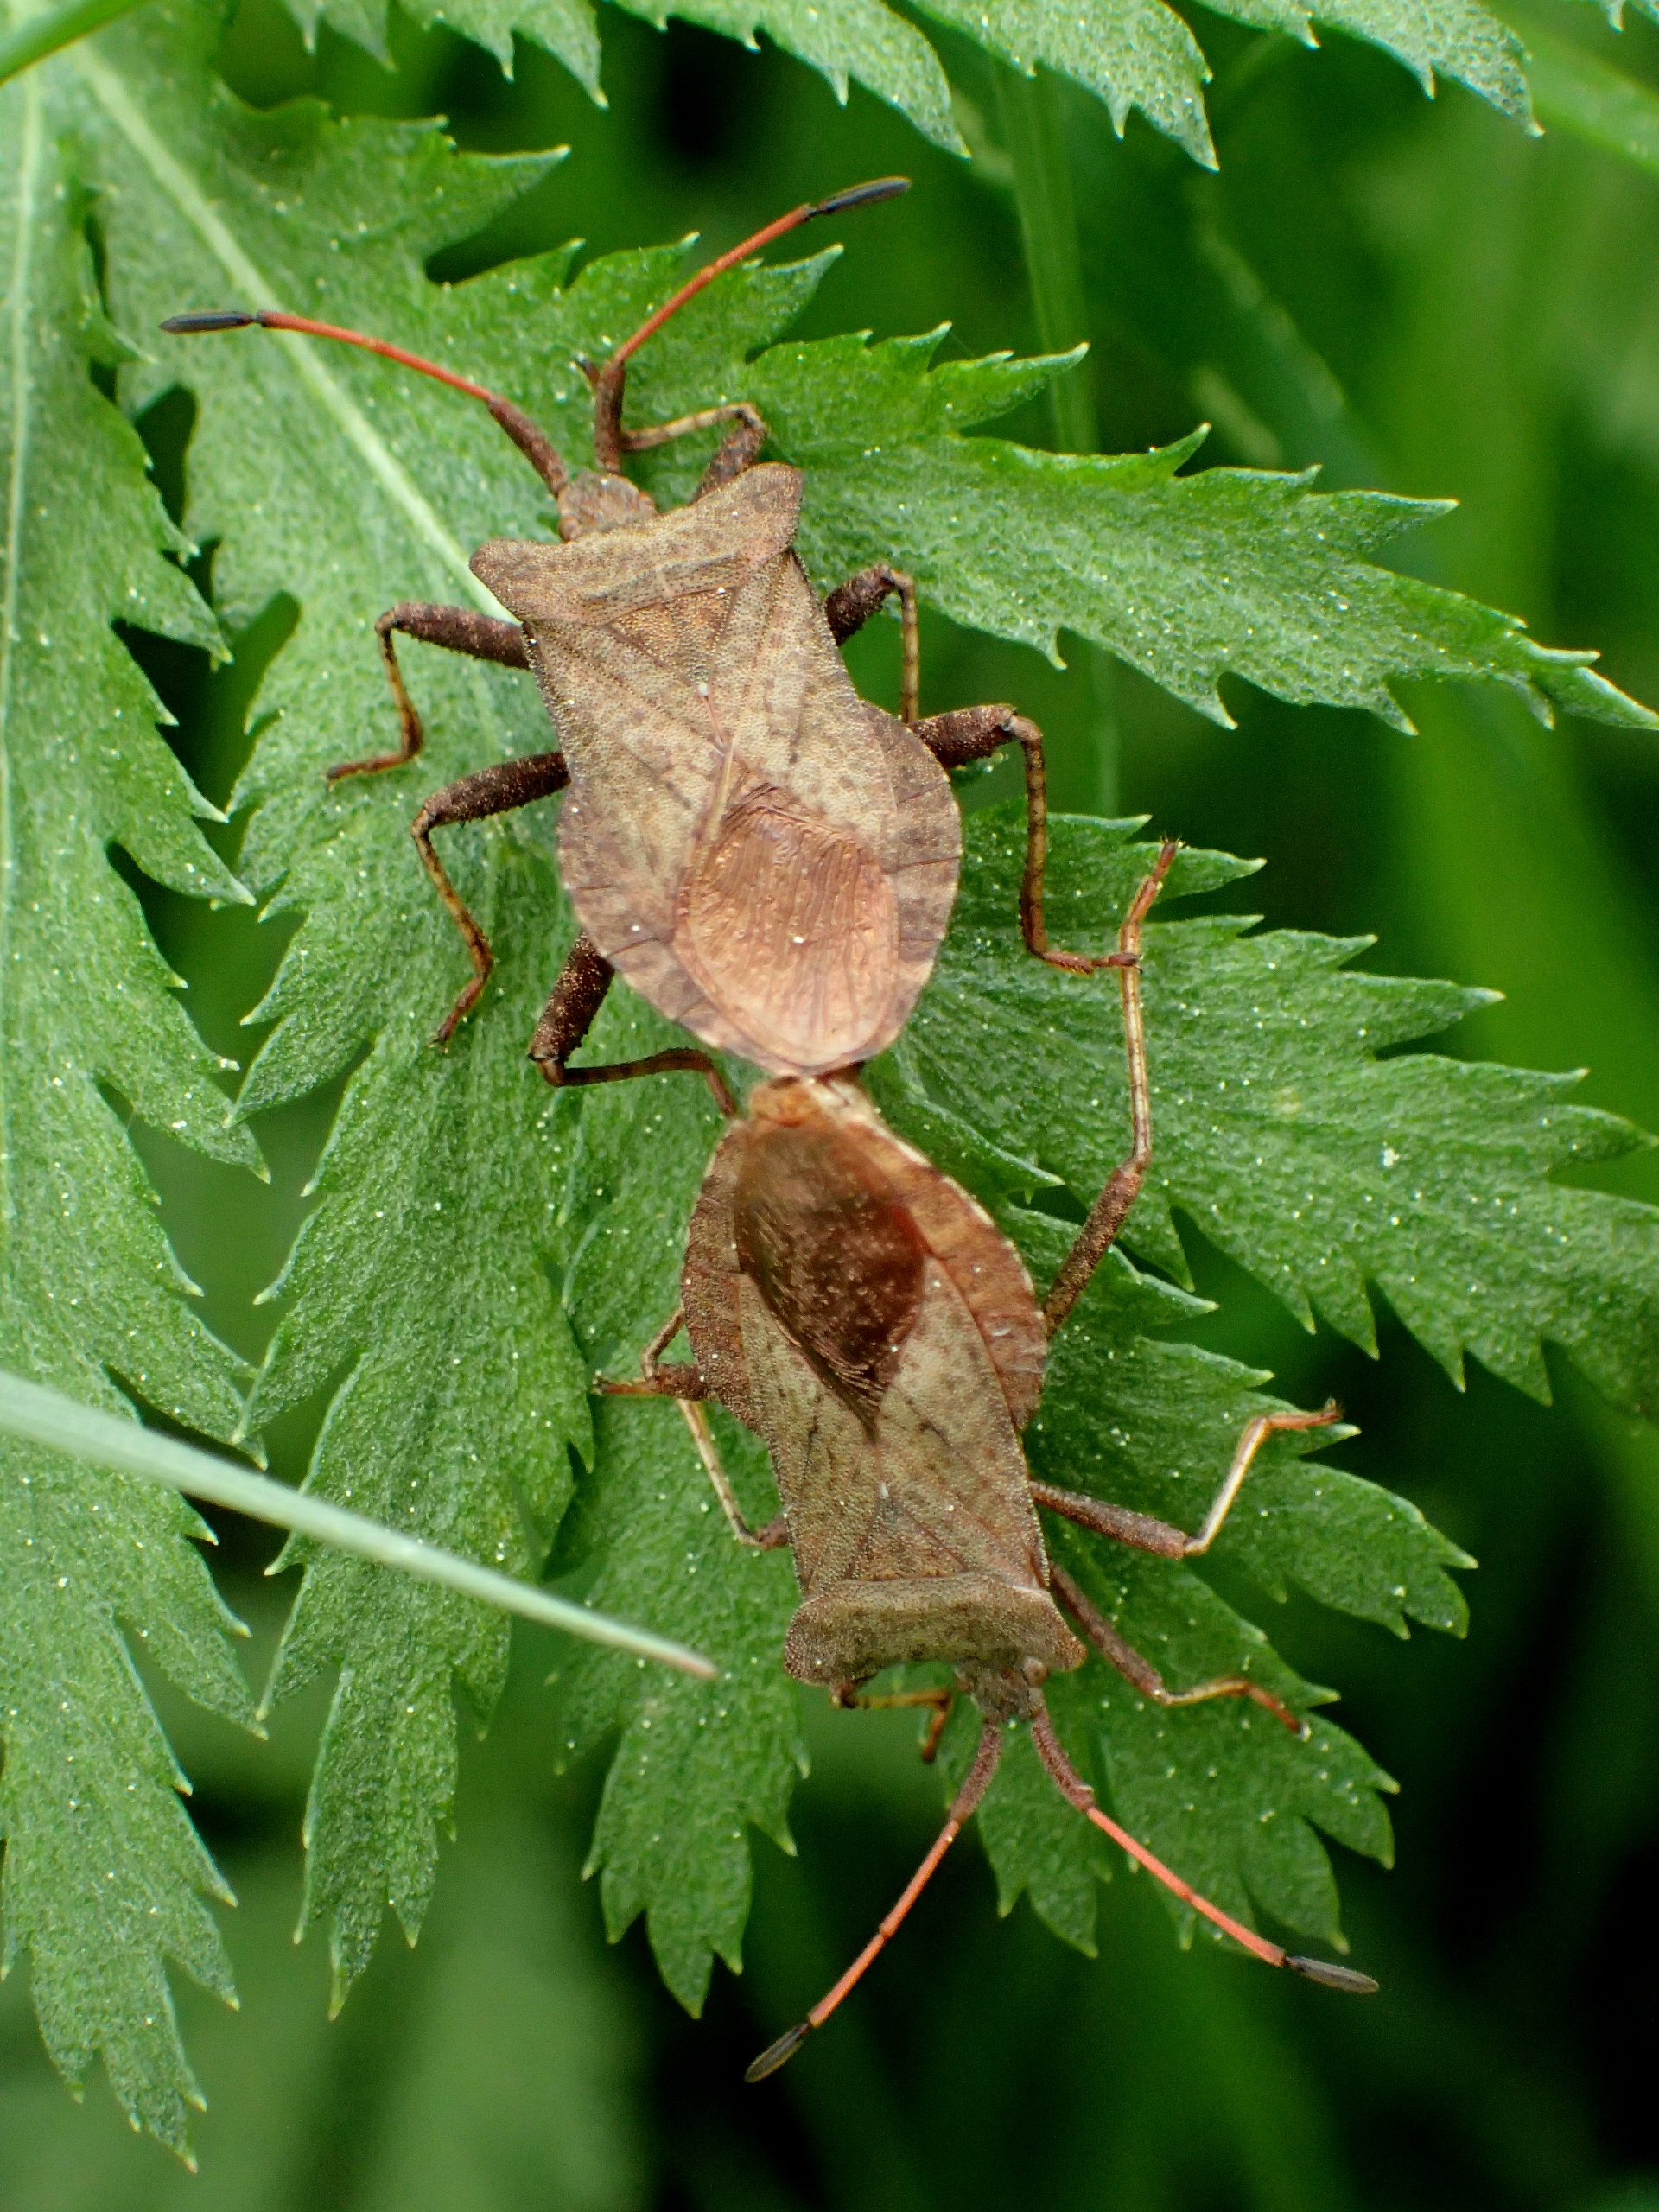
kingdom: Animalia
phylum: Arthropoda
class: Insecta
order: Hemiptera
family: Coreidae
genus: Coreus
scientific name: Coreus marginatus
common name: Skræppetæge
